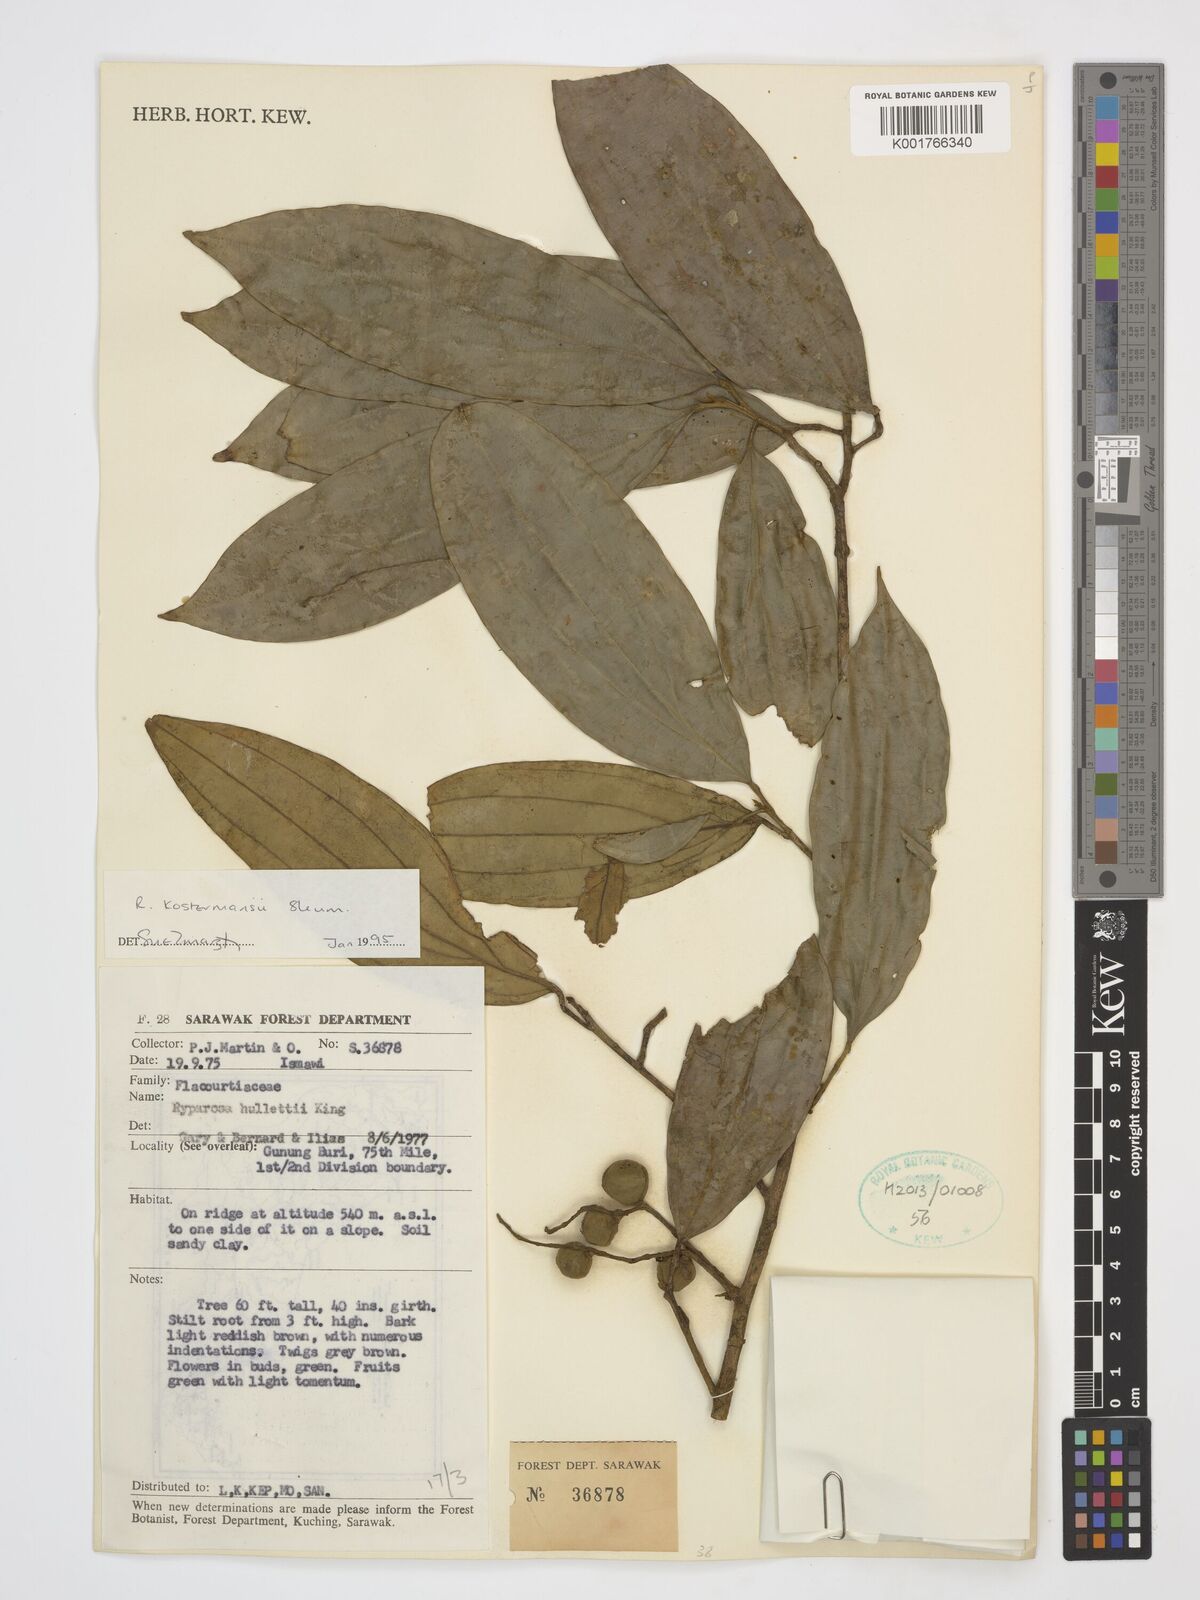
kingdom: Plantae
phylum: Tracheophyta
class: Magnoliopsida
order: Malpighiales
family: Achariaceae
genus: Ryparosa
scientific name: Ryparosa kostermansii
